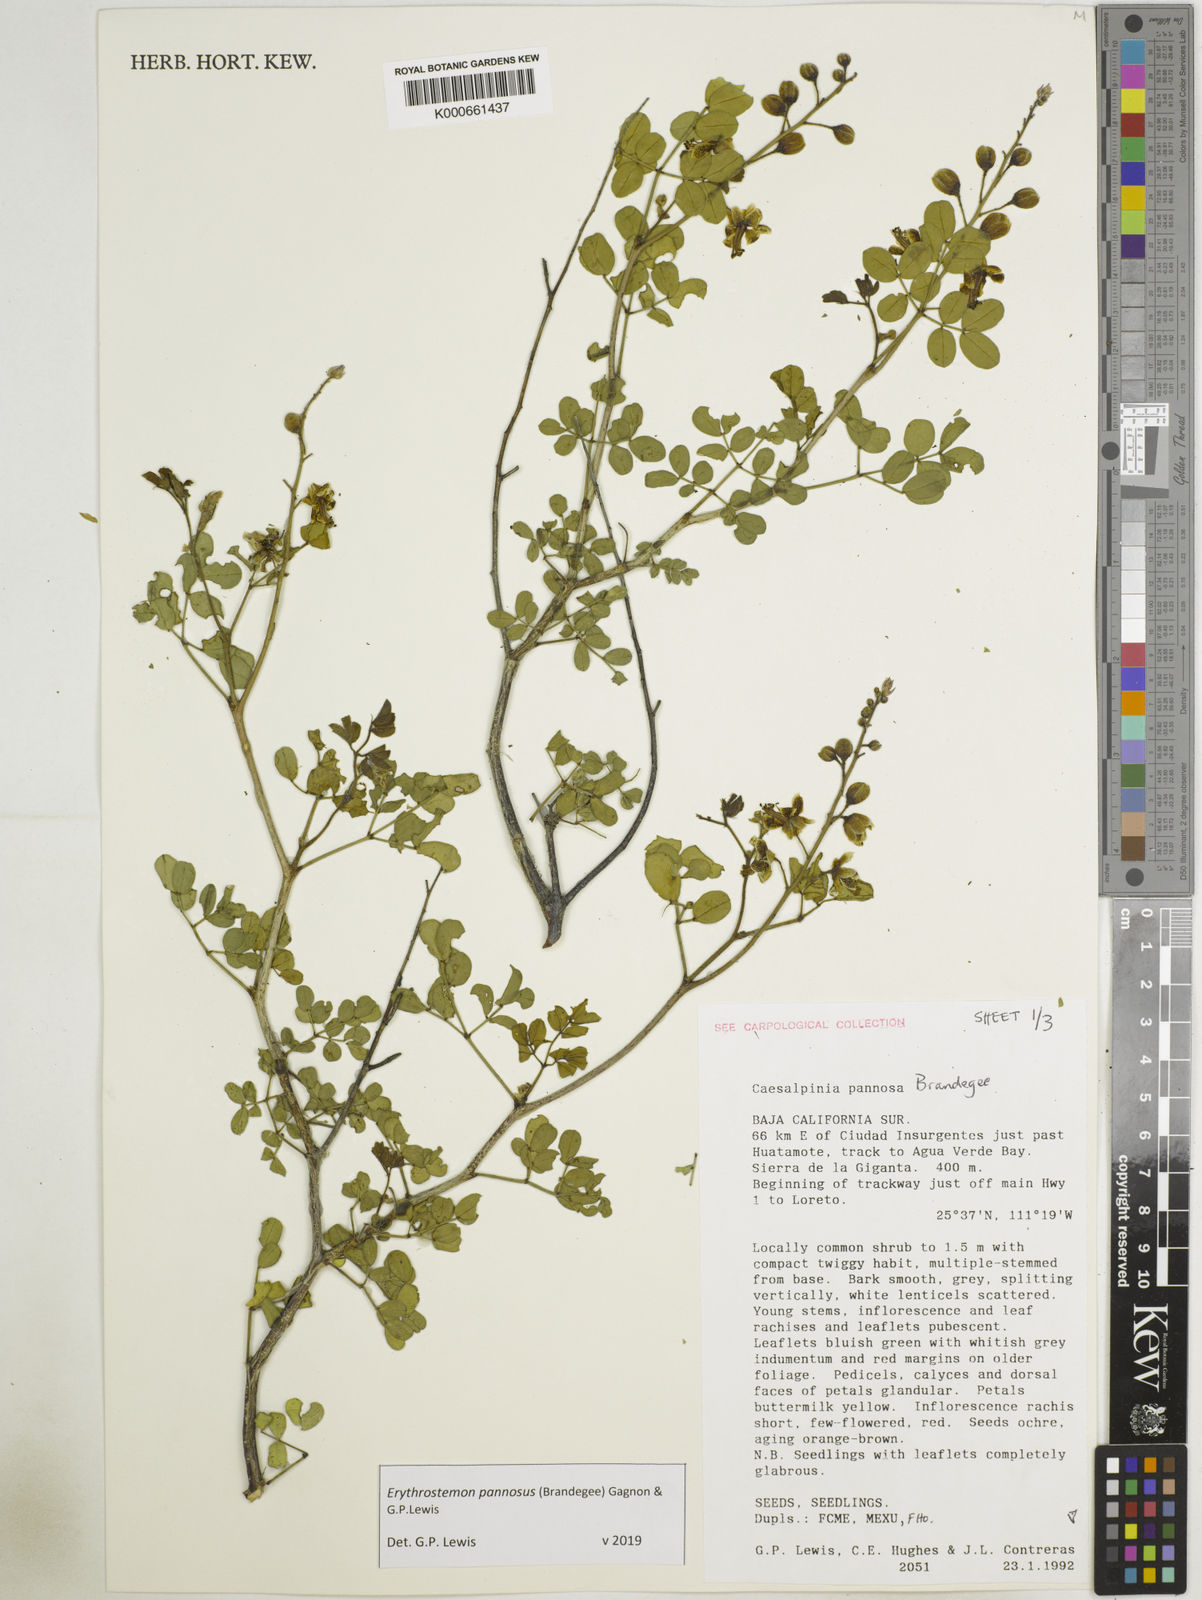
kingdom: Plantae
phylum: Tracheophyta
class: Magnoliopsida
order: Fabales
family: Fabaceae
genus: Erythrostemon
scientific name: Erythrostemon pannosus
